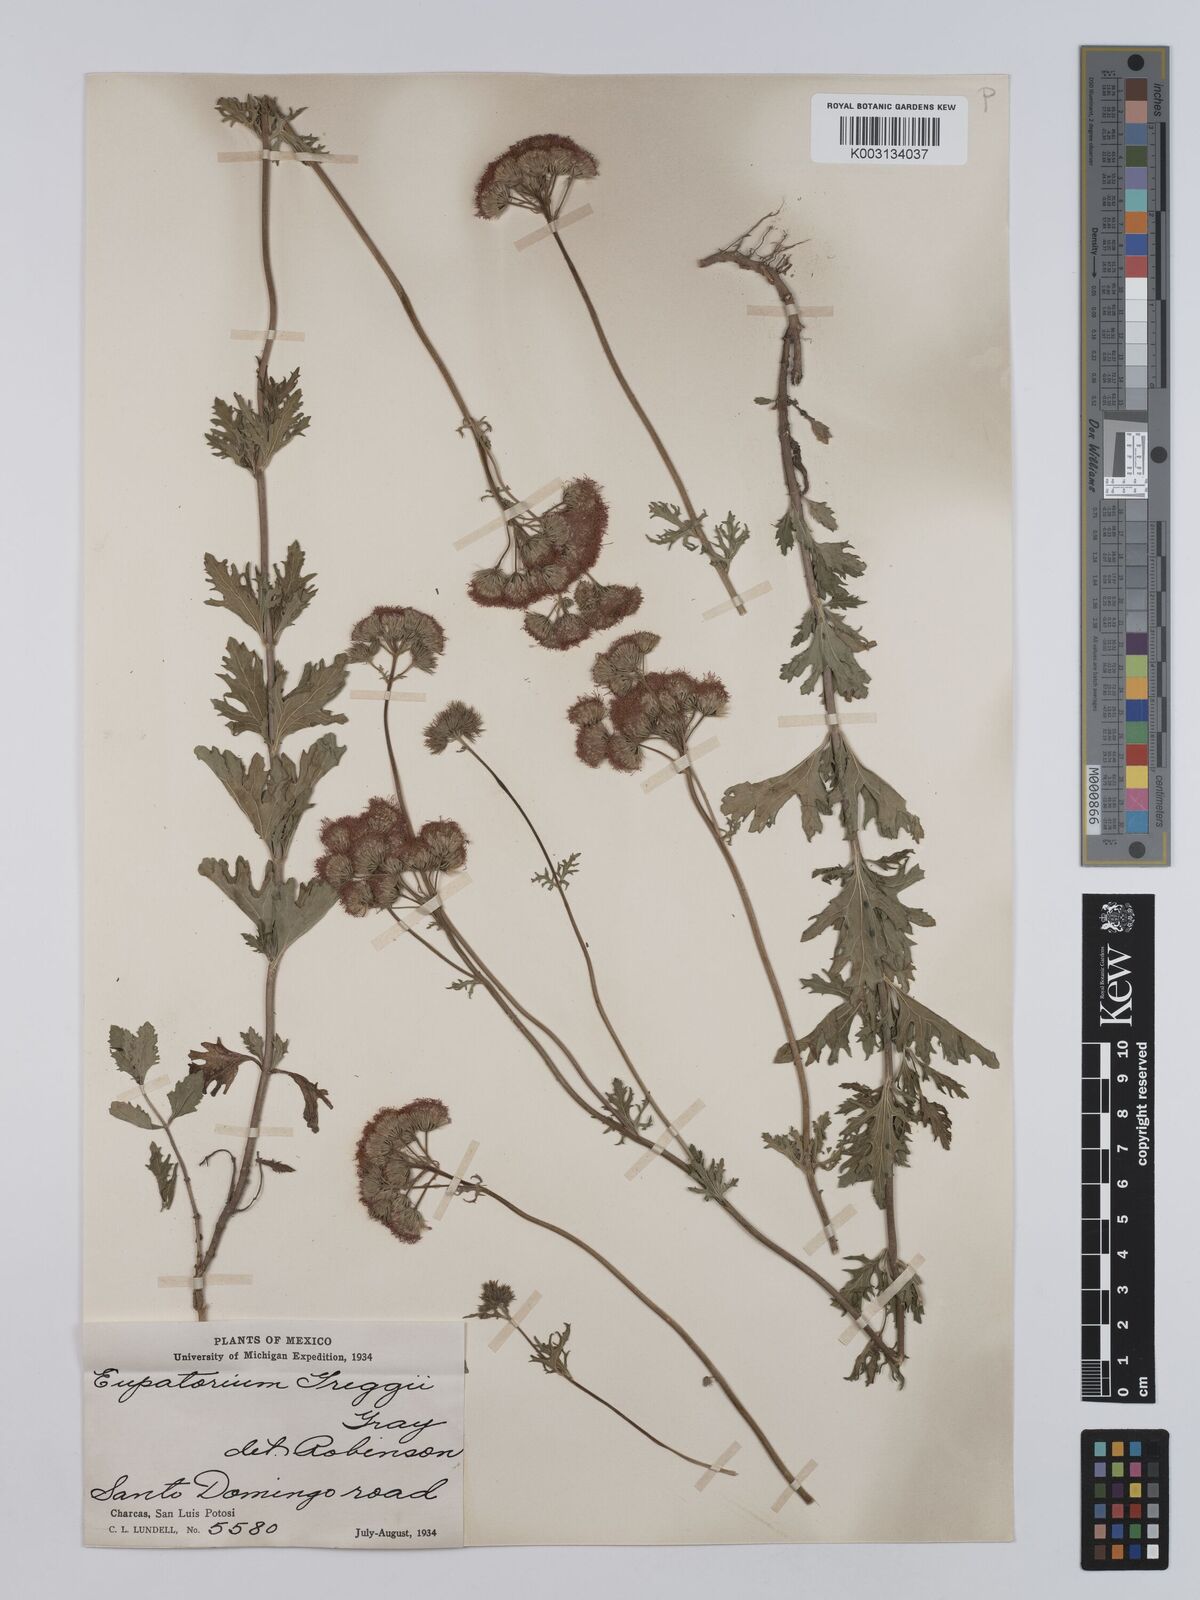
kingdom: Plantae
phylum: Tracheophyta
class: Magnoliopsida
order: Asterales
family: Asteraceae
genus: Conoclinium
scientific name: Conoclinium dissectum
